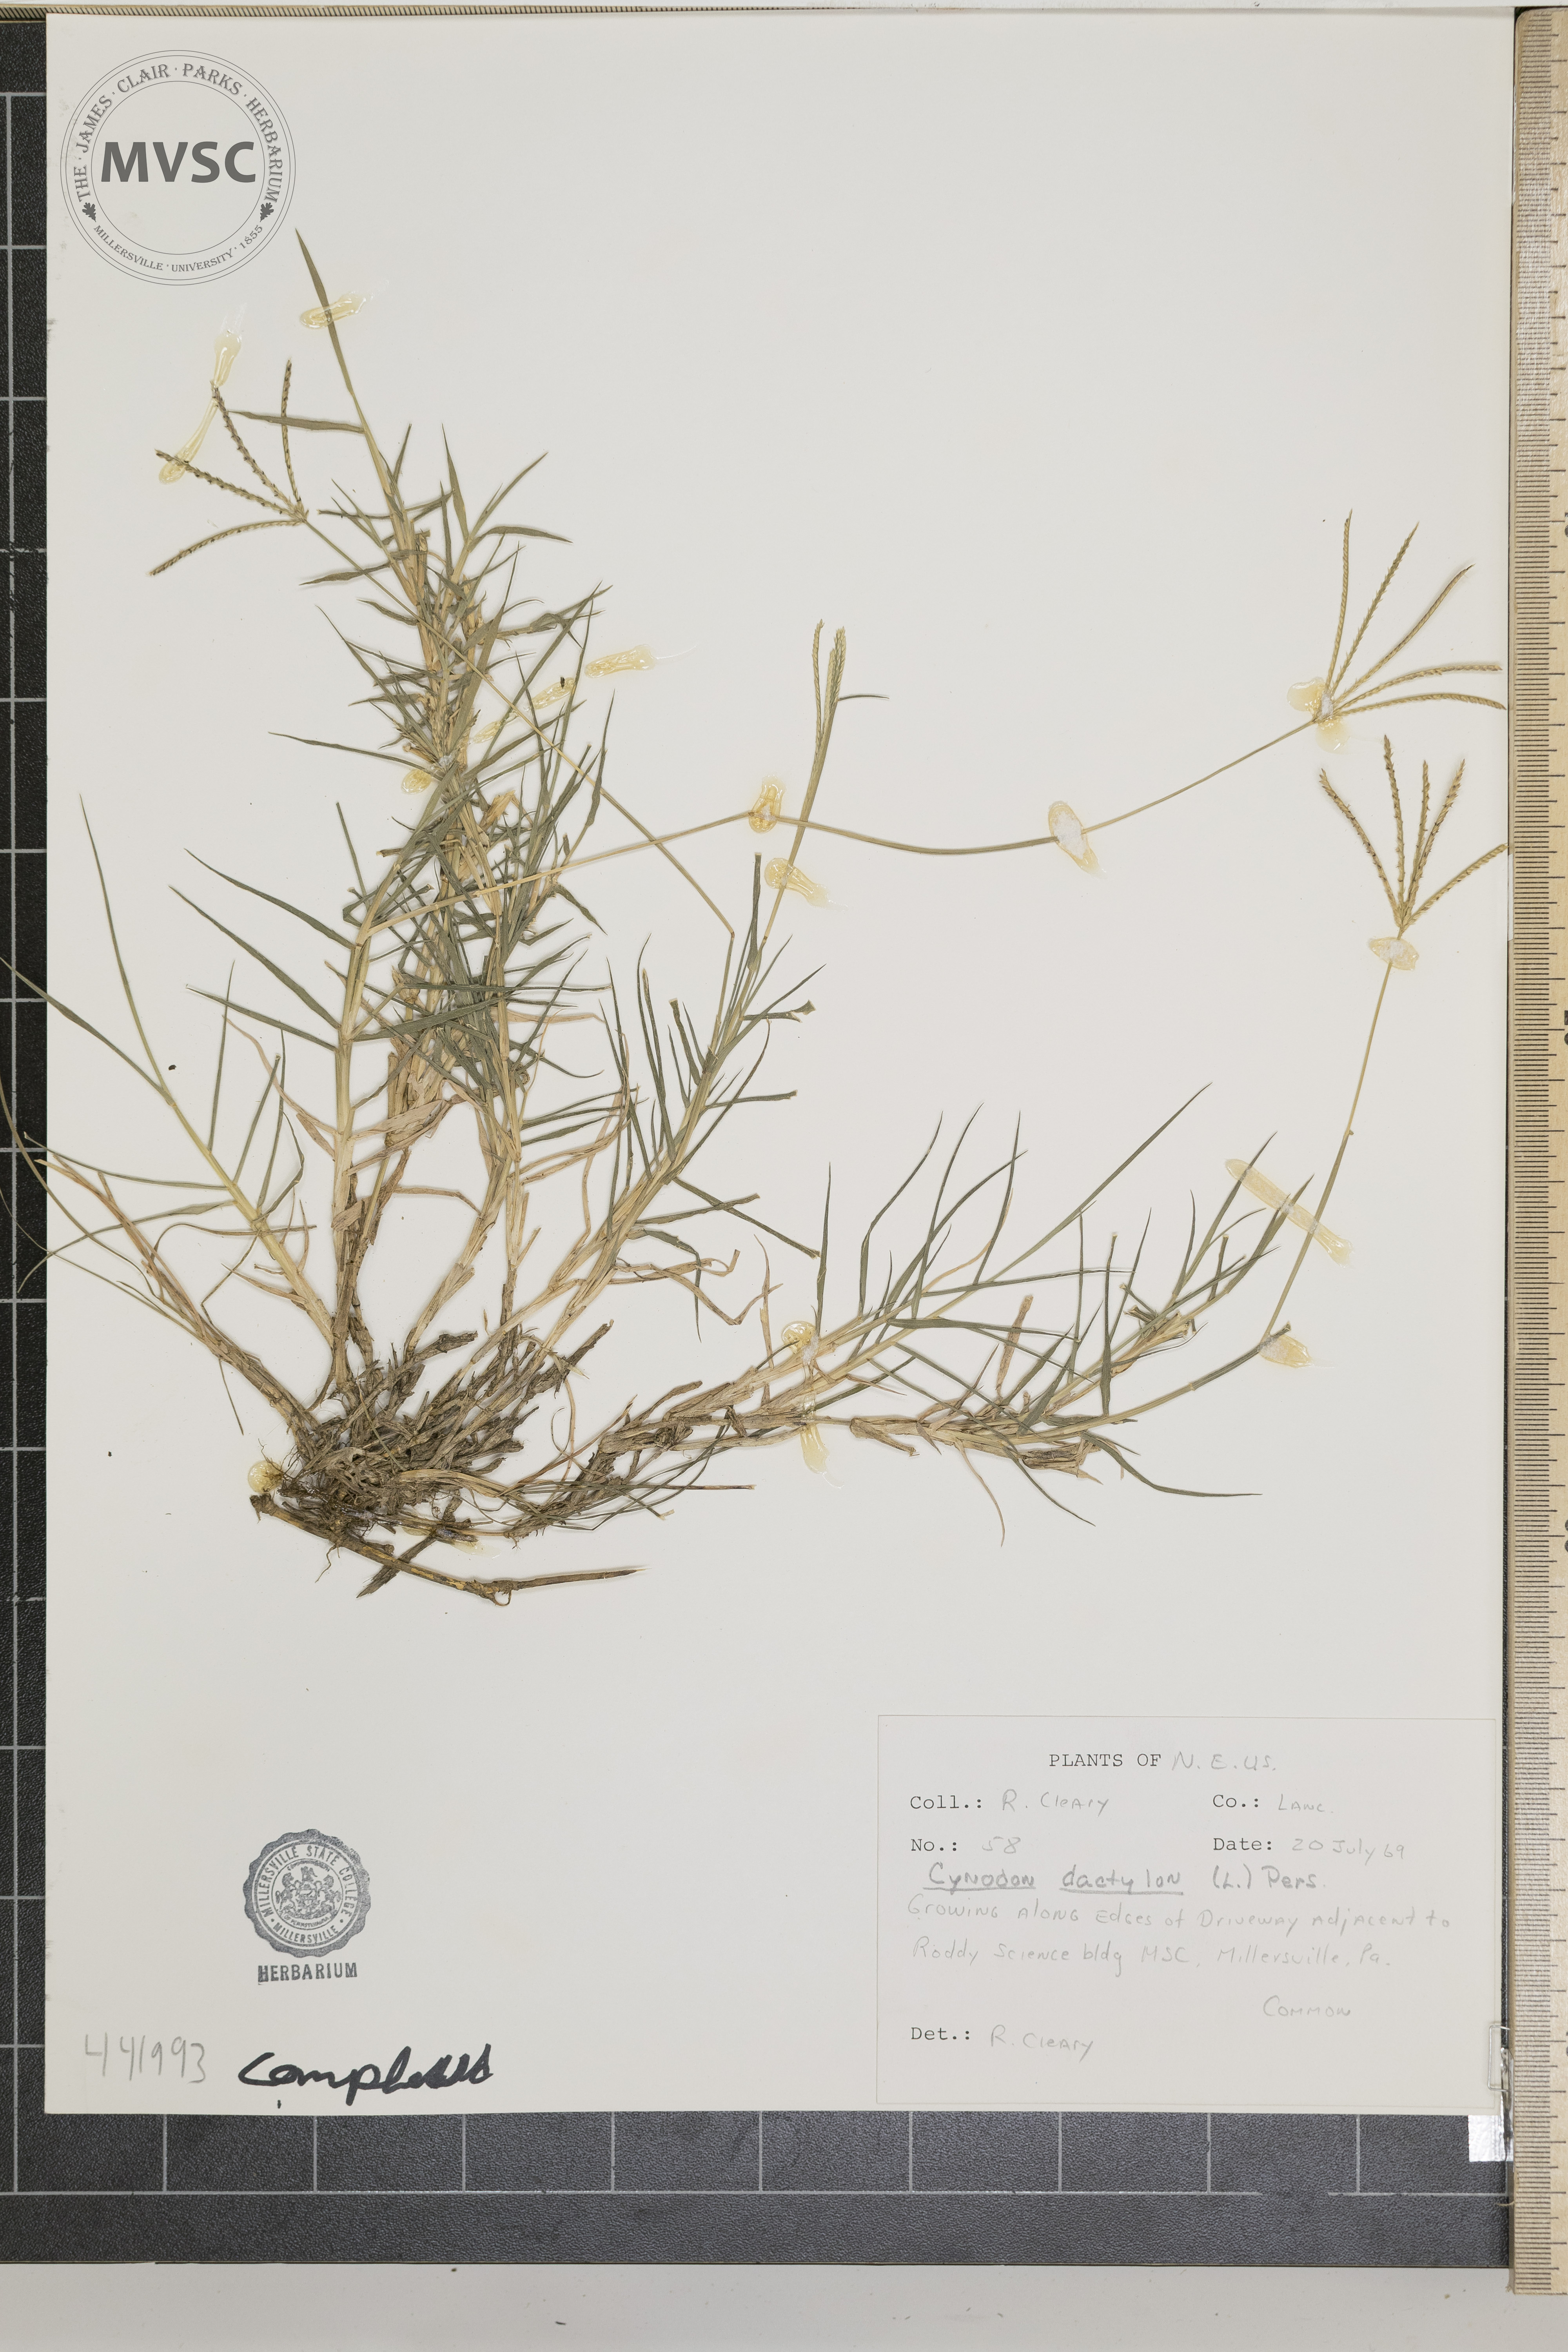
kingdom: Plantae
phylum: Tracheophyta
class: Liliopsida
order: Poales
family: Poaceae
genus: Cynodon
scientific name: Cynodon dactylon
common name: Bermuda grass
